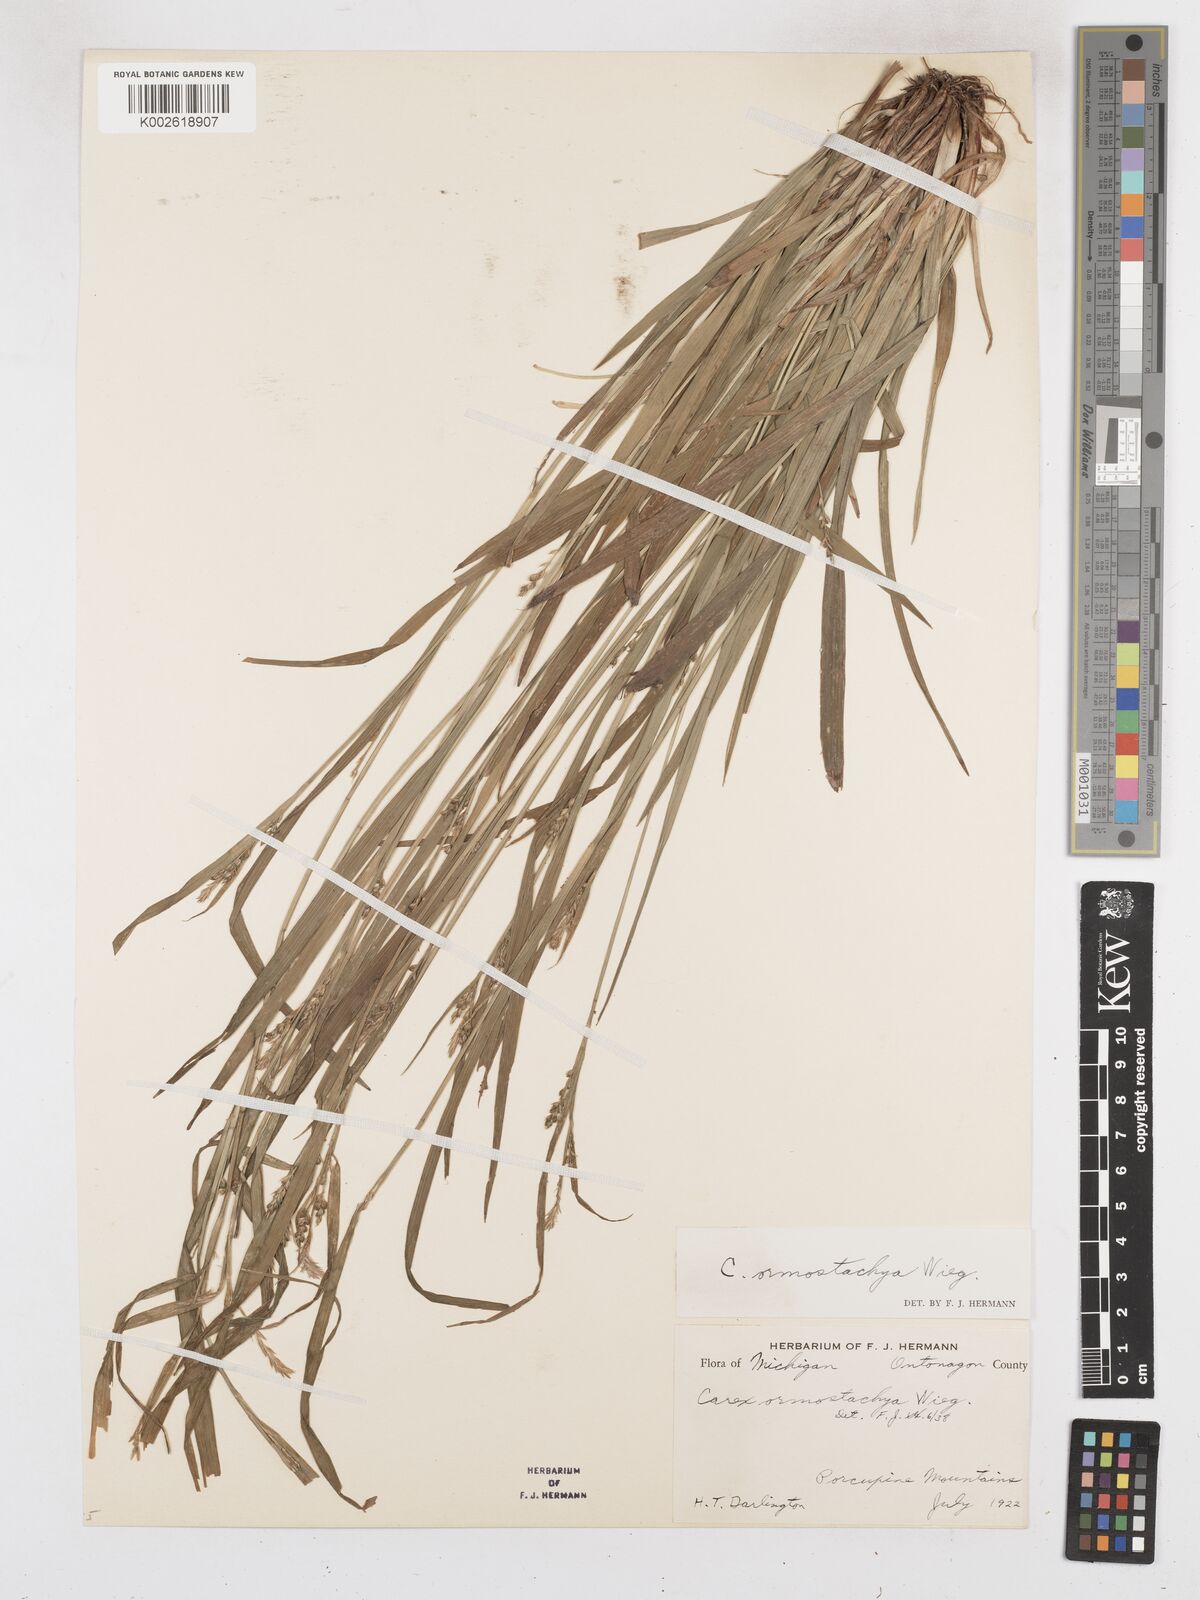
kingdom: Plantae
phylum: Tracheophyta
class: Liliopsida
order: Poales
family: Cyperaceae
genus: Carex
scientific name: Carex ormostachya
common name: Necklace spike sedge
